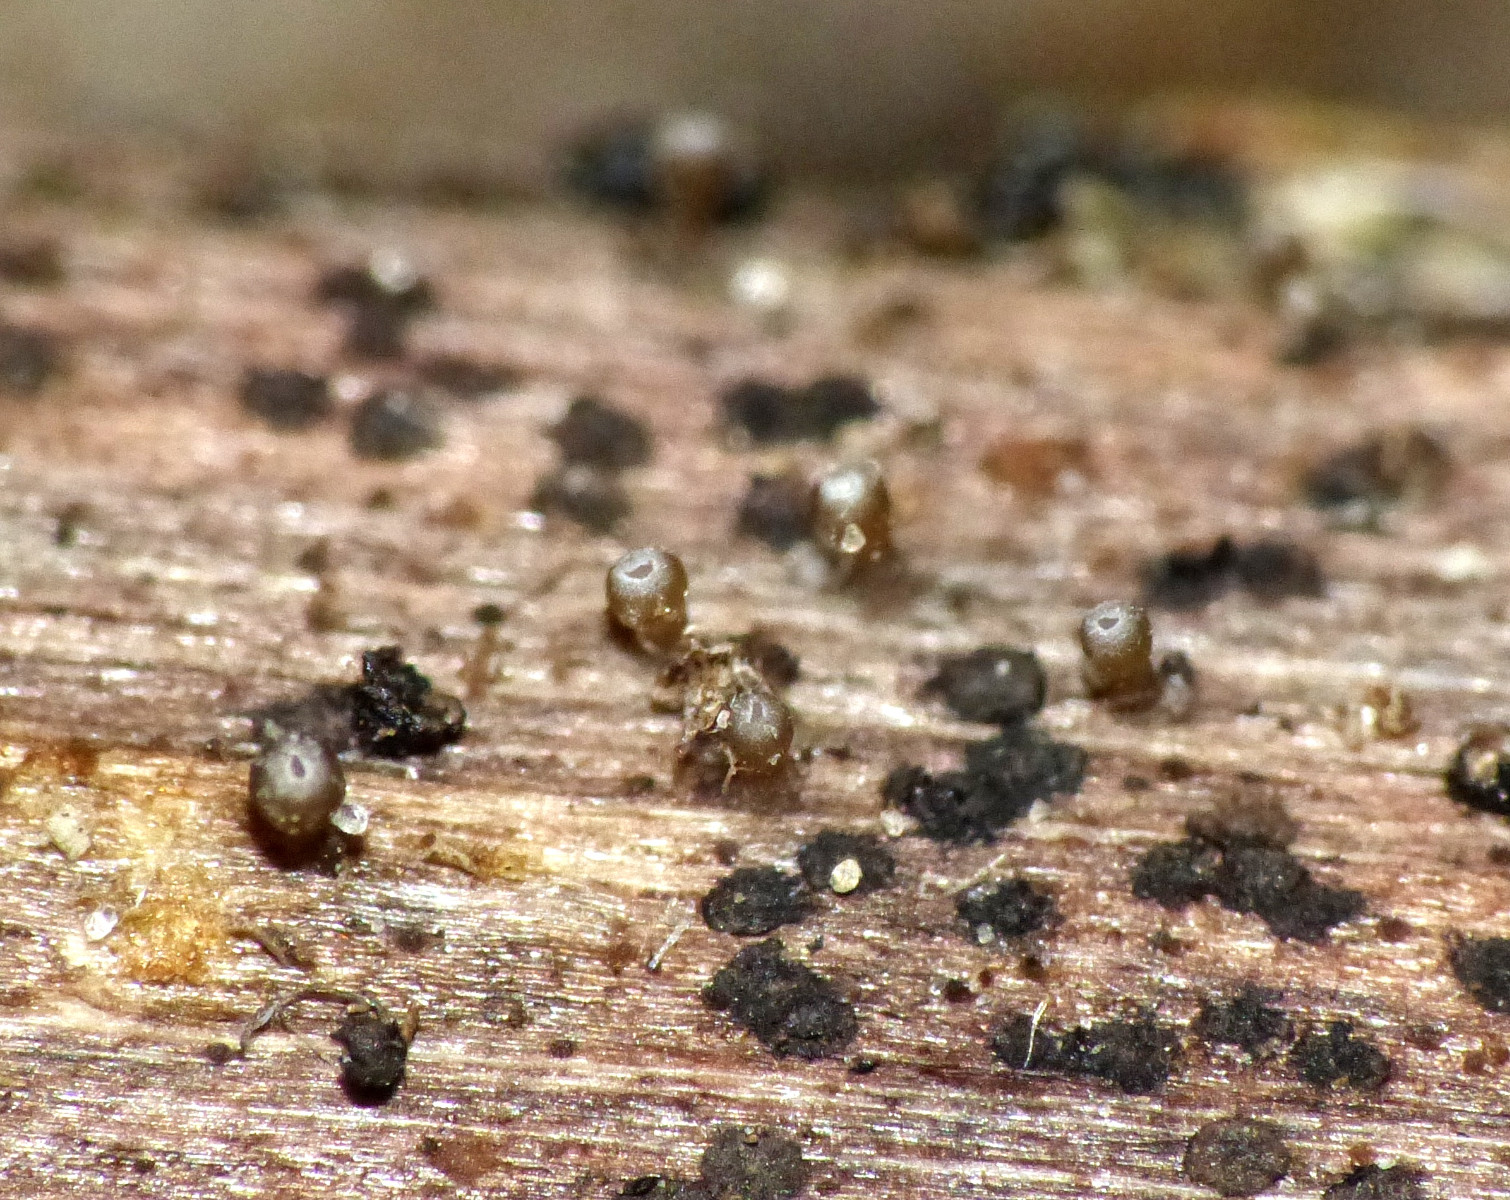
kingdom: Fungi
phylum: Ascomycota
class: Leotiomycetes
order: Helotiales
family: Helotiaceae
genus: Cyathicula
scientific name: Cyathicula cyathoidea
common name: pokal-stilkskive
